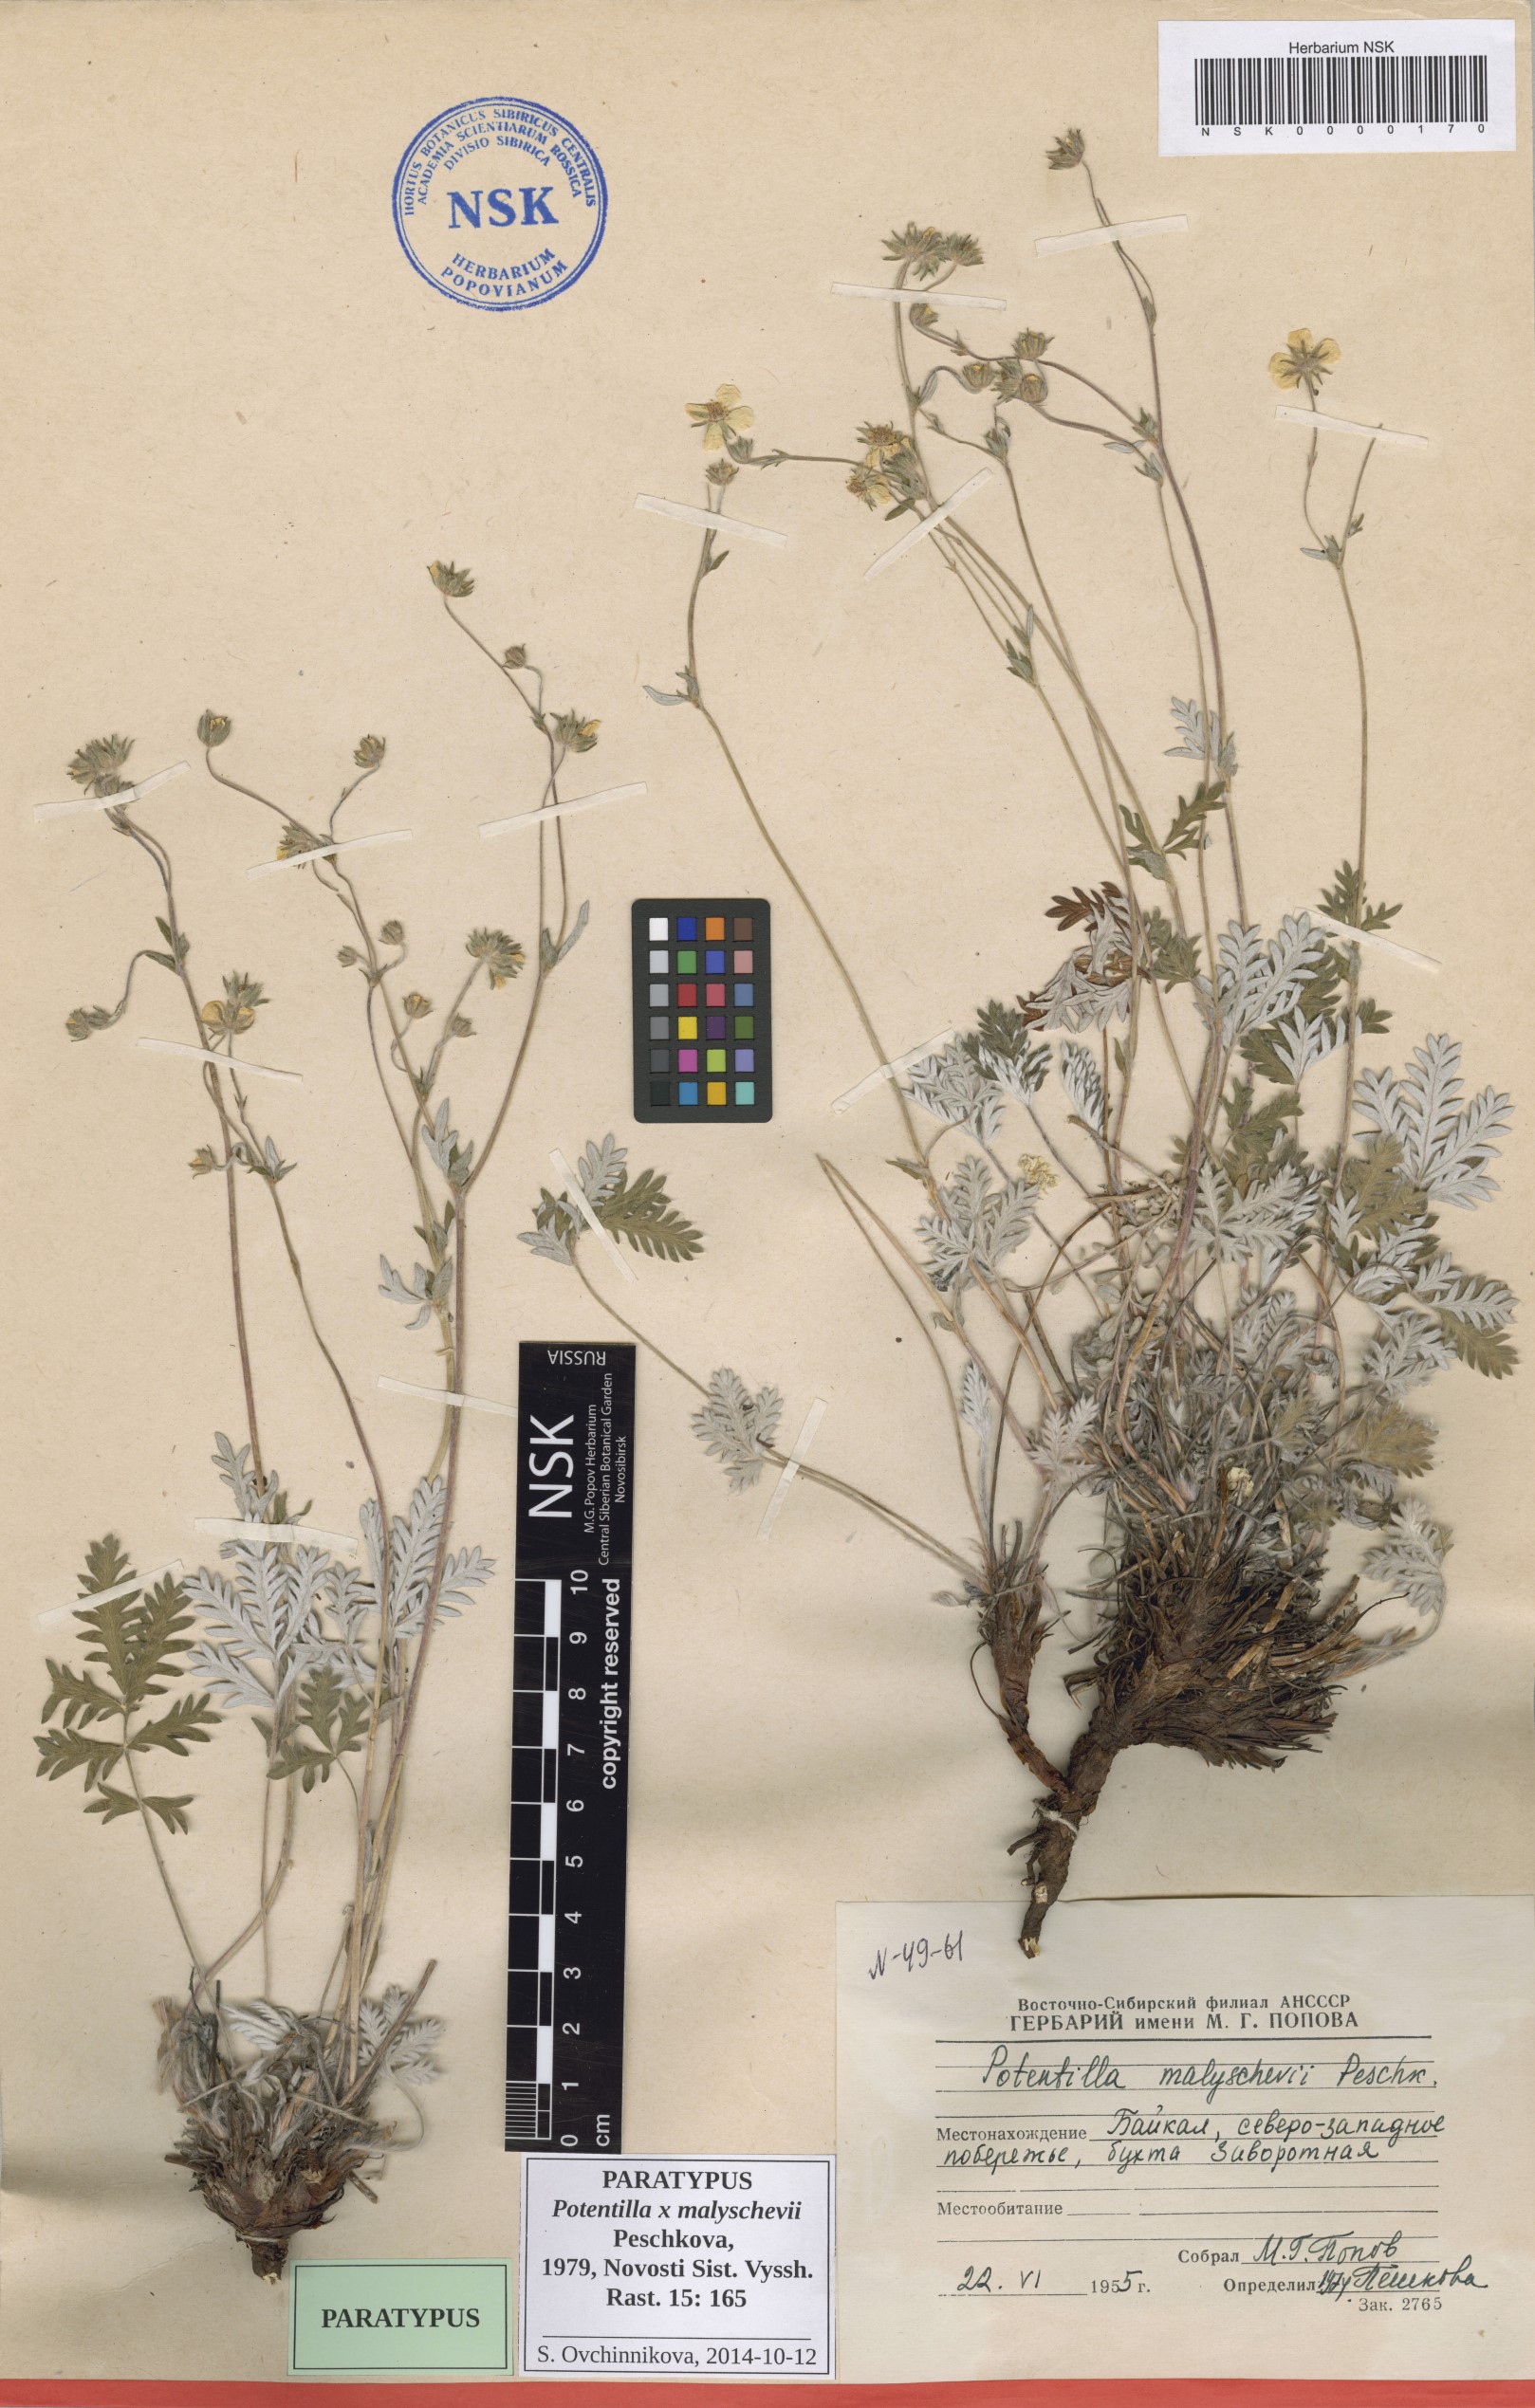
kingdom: Plantae
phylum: Tracheophyta
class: Magnoliopsida
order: Rosales
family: Rosaceae
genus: Potentilla
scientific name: Potentilla chionea
